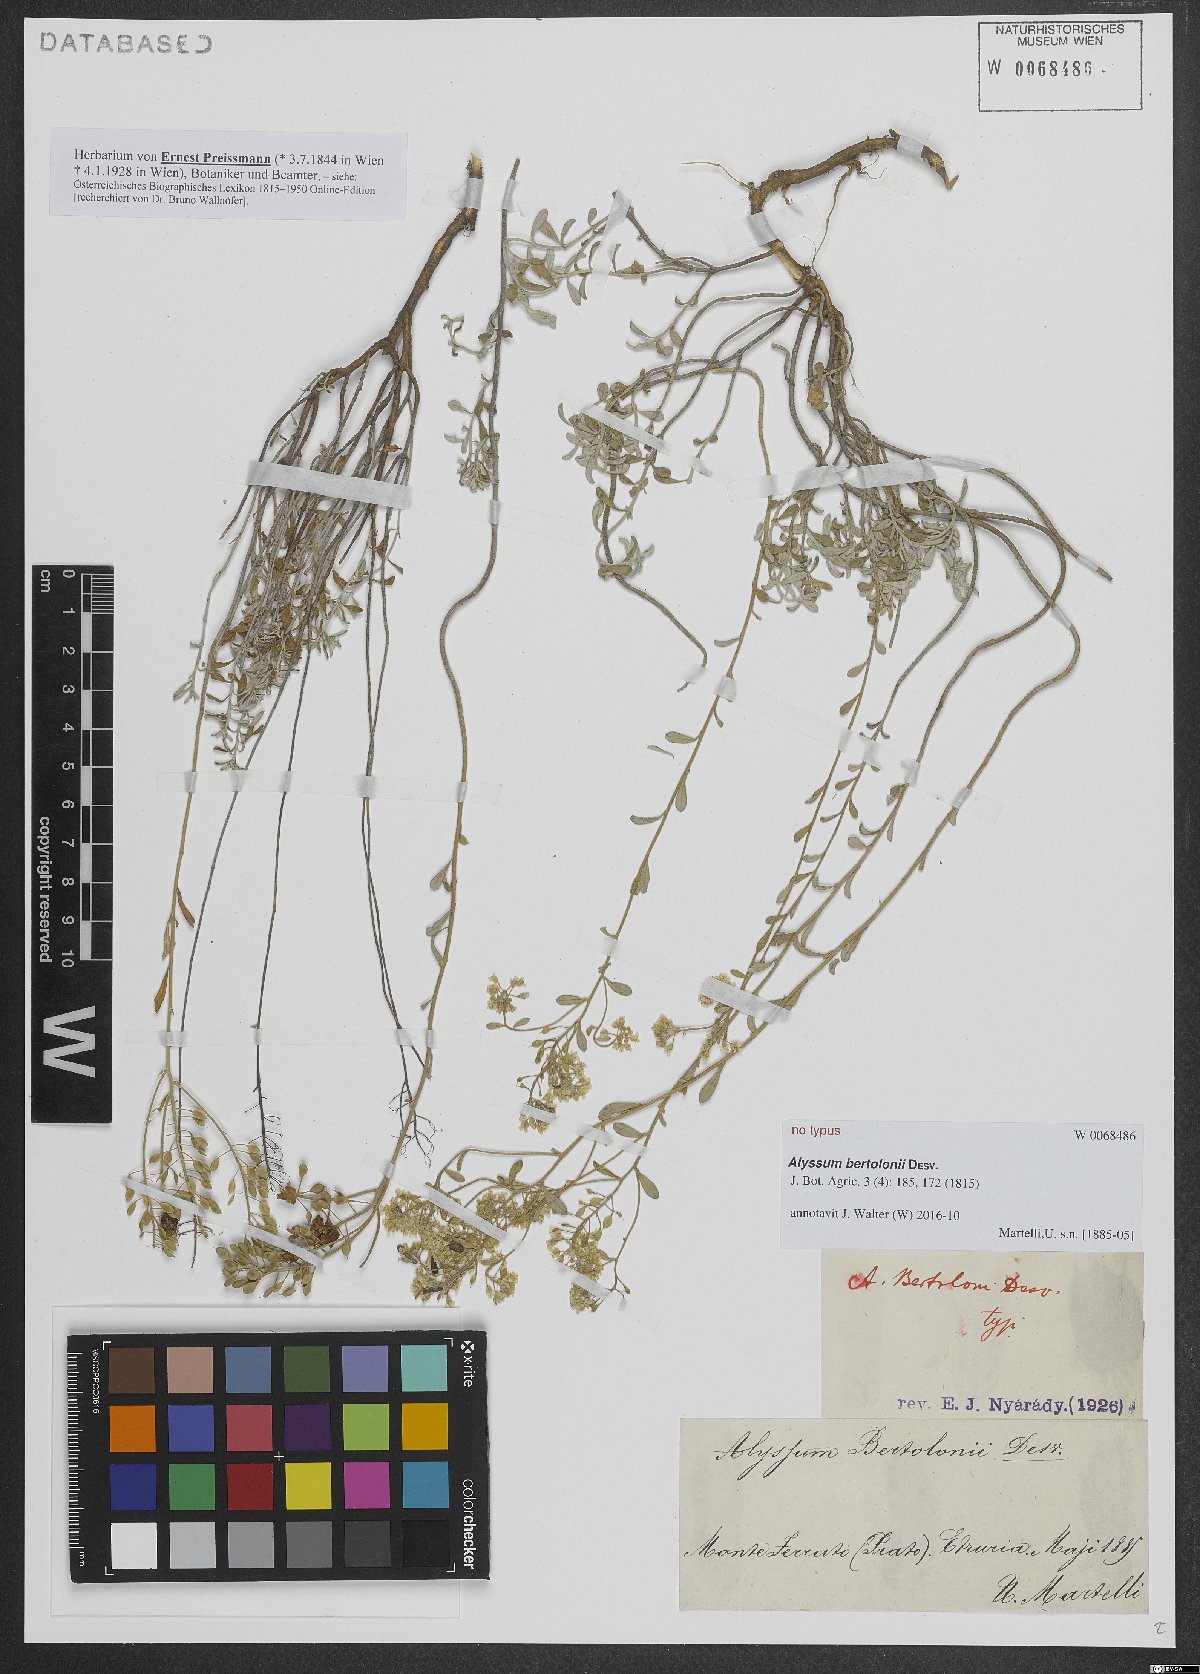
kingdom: Plantae
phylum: Tracheophyta
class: Magnoliopsida
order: Brassicales
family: Brassicaceae
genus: Odontarrhena
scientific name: Odontarrhena bertolonii
